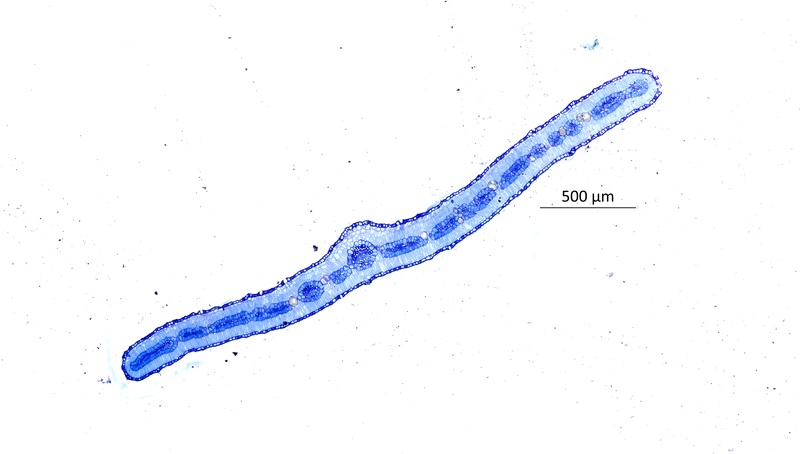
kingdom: Plantae
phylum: Tracheophyta
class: Magnoliopsida
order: Zygophyllales
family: Zygophyllaceae
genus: Tribulus
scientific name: Tribulus excrucians
